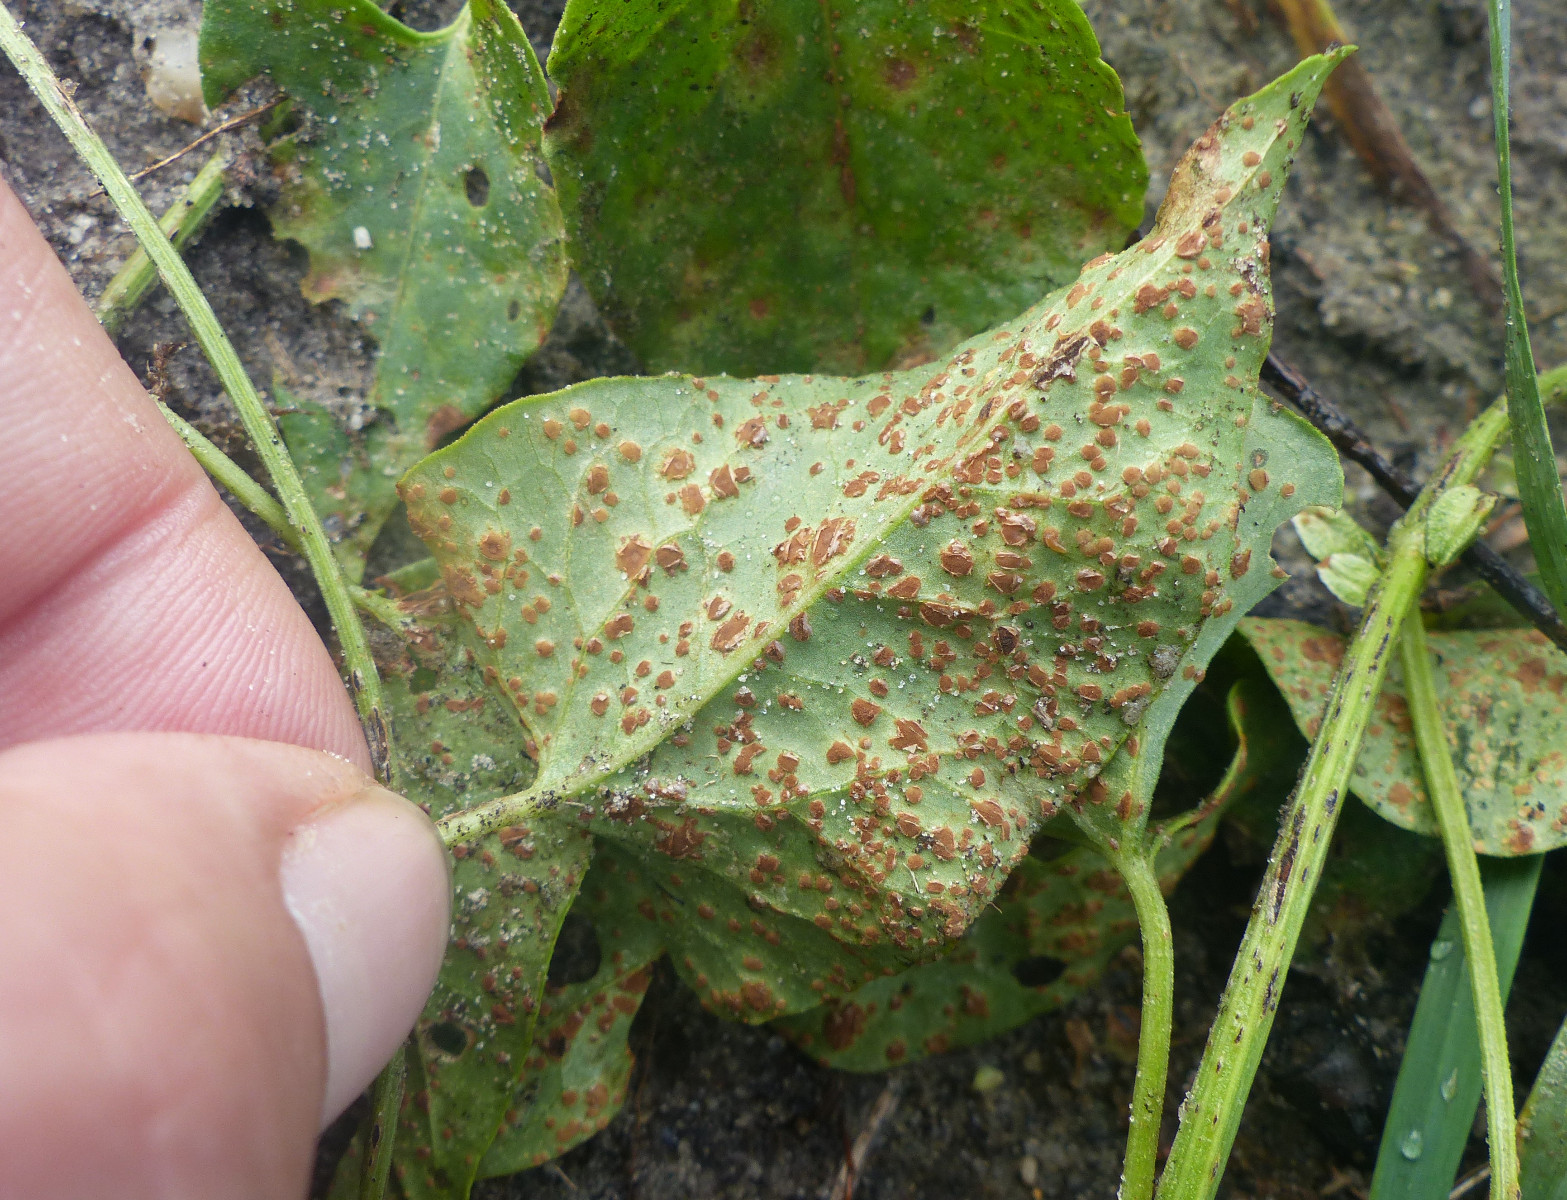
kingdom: Fungi
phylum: Basidiomycota
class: Pucciniomycetes
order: Pucciniales
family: Pucciniaceae
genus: Puccinia
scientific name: Puccinia polygoni-amphibii
